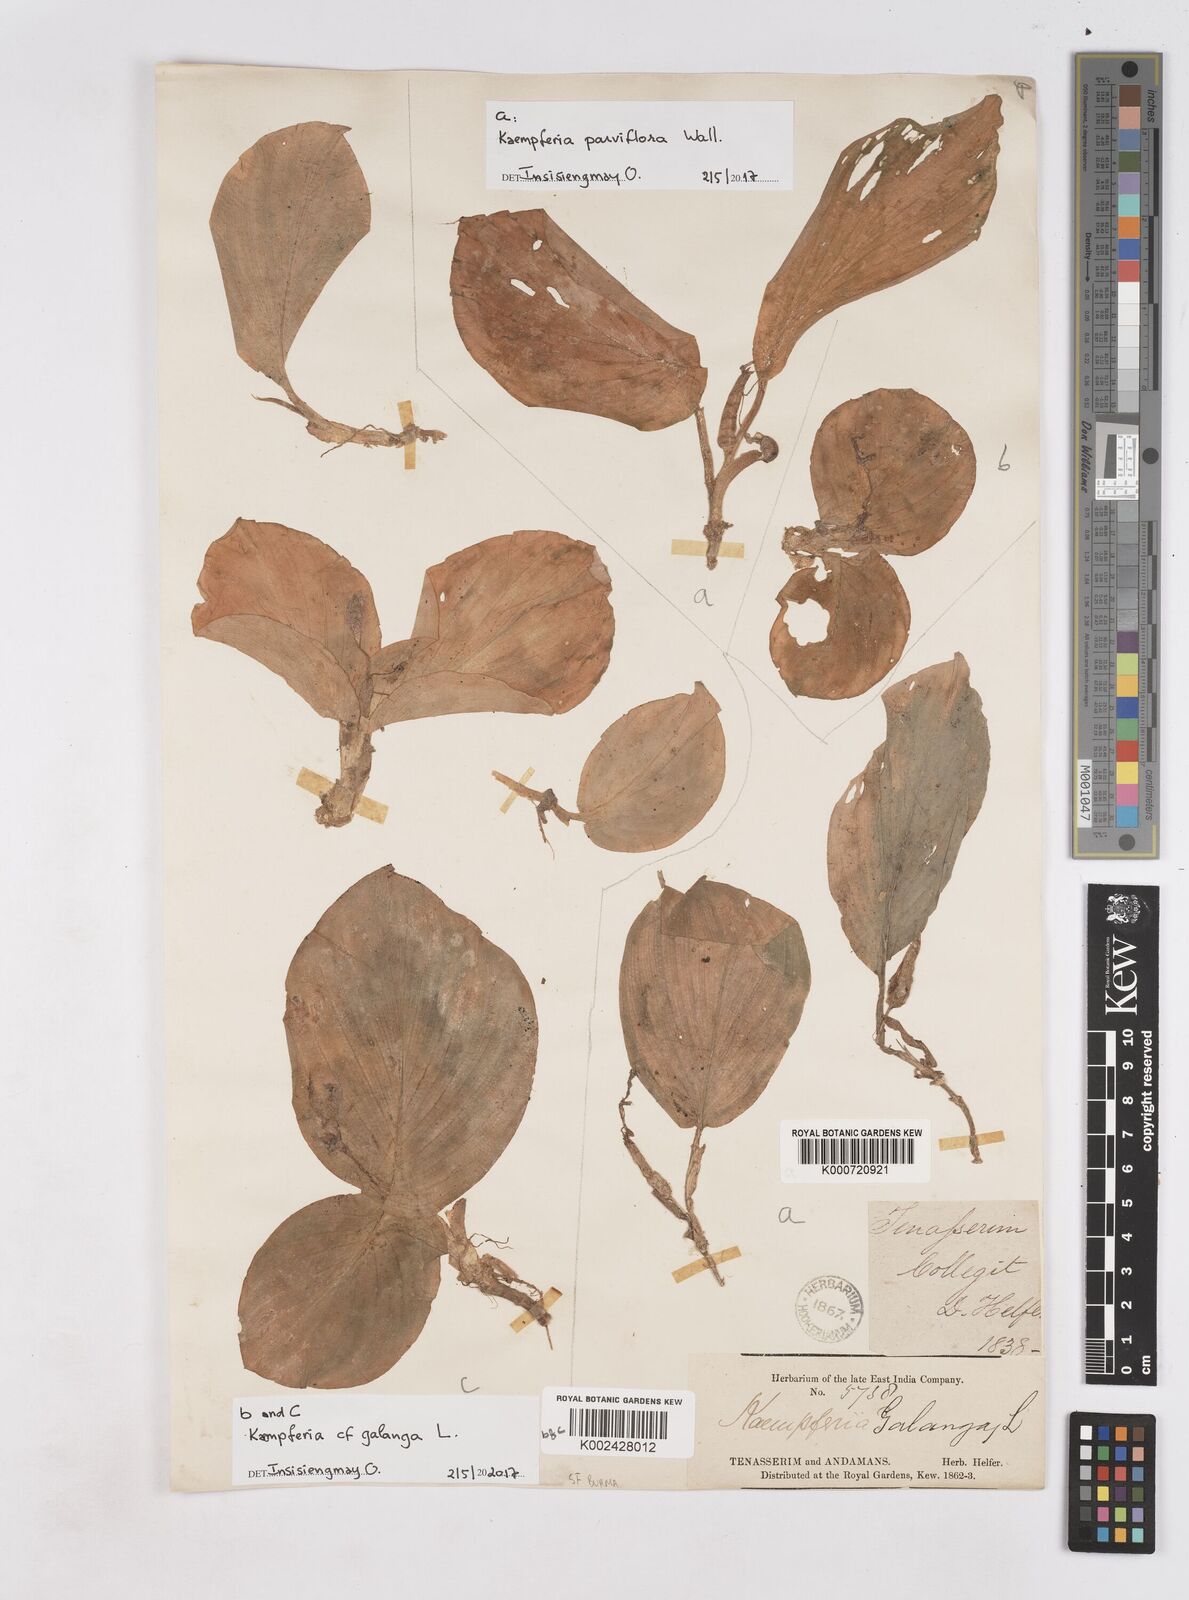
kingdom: Plantae
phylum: Tracheophyta
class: Liliopsida
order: Zingiberales
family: Zingiberaceae
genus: Kaempferia
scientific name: Kaempferia
